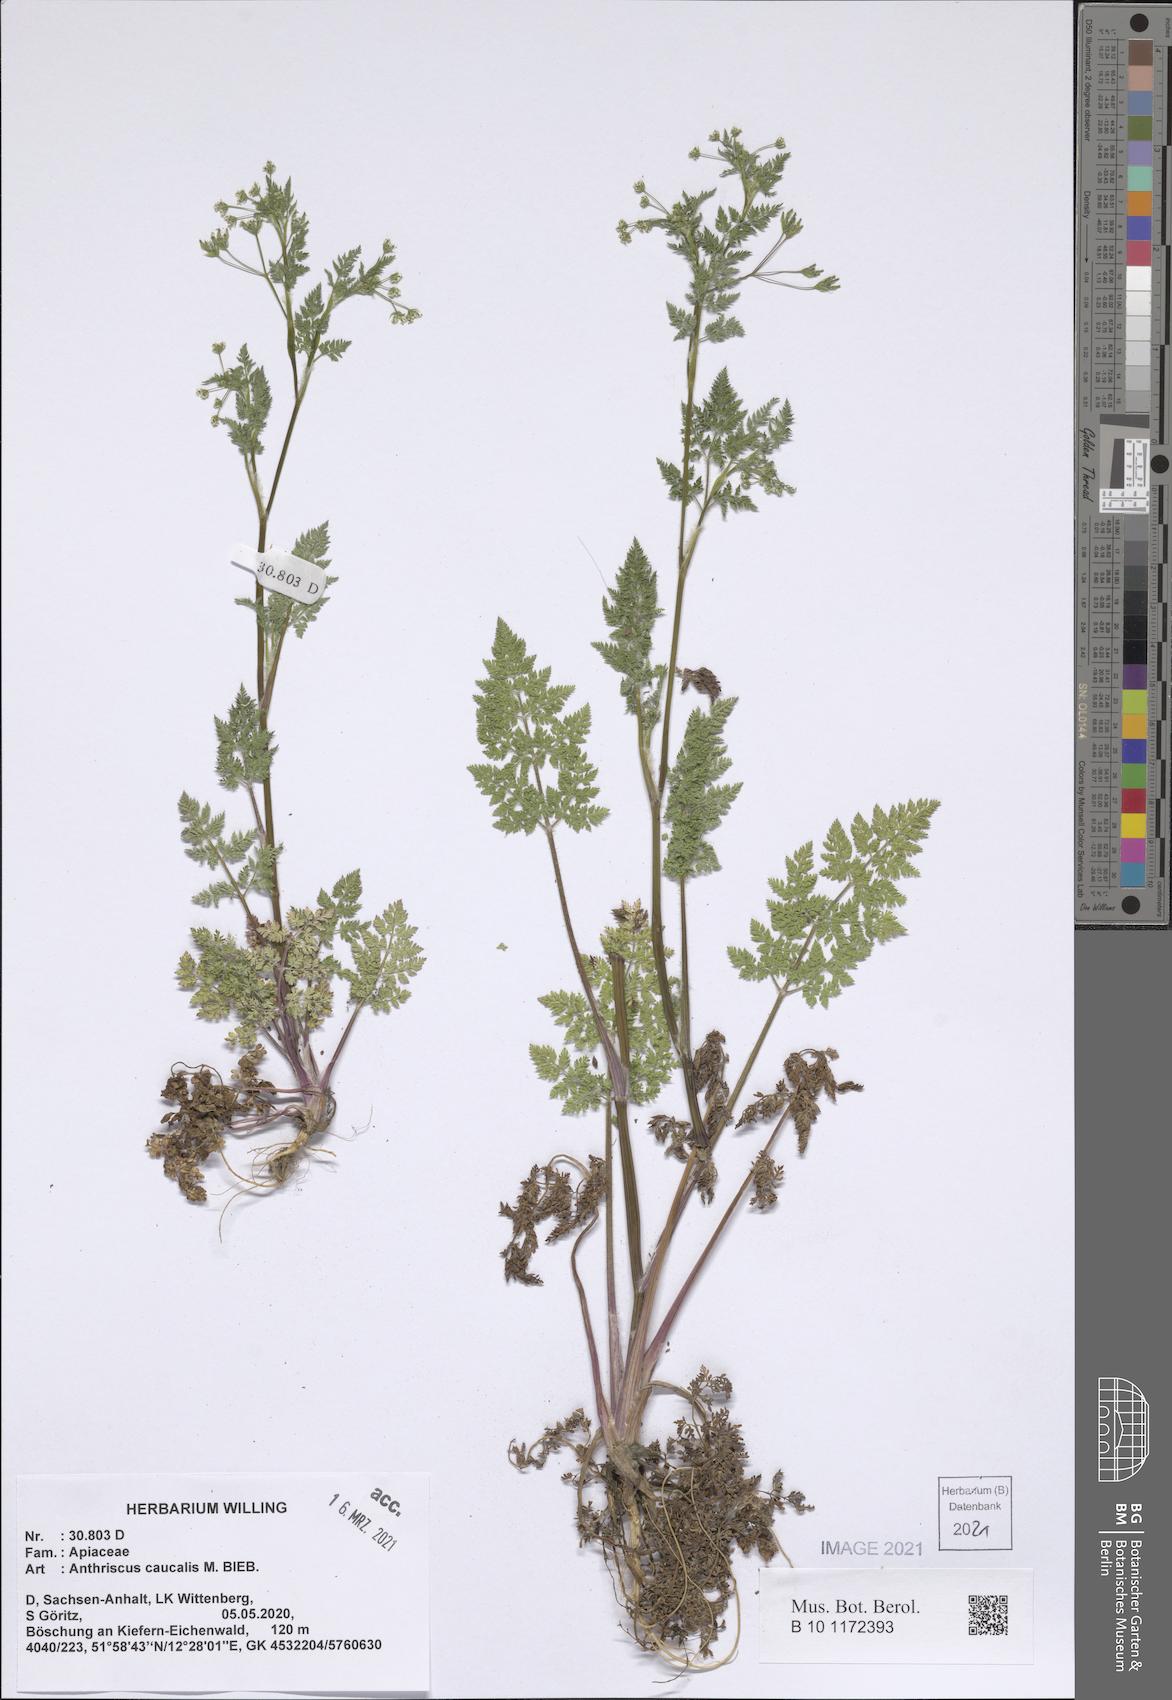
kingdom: Plantae
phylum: Tracheophyta
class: Magnoliopsida
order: Apiales
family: Apiaceae
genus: Anthriscus
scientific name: Anthriscus caucalis
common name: Bur chervil
